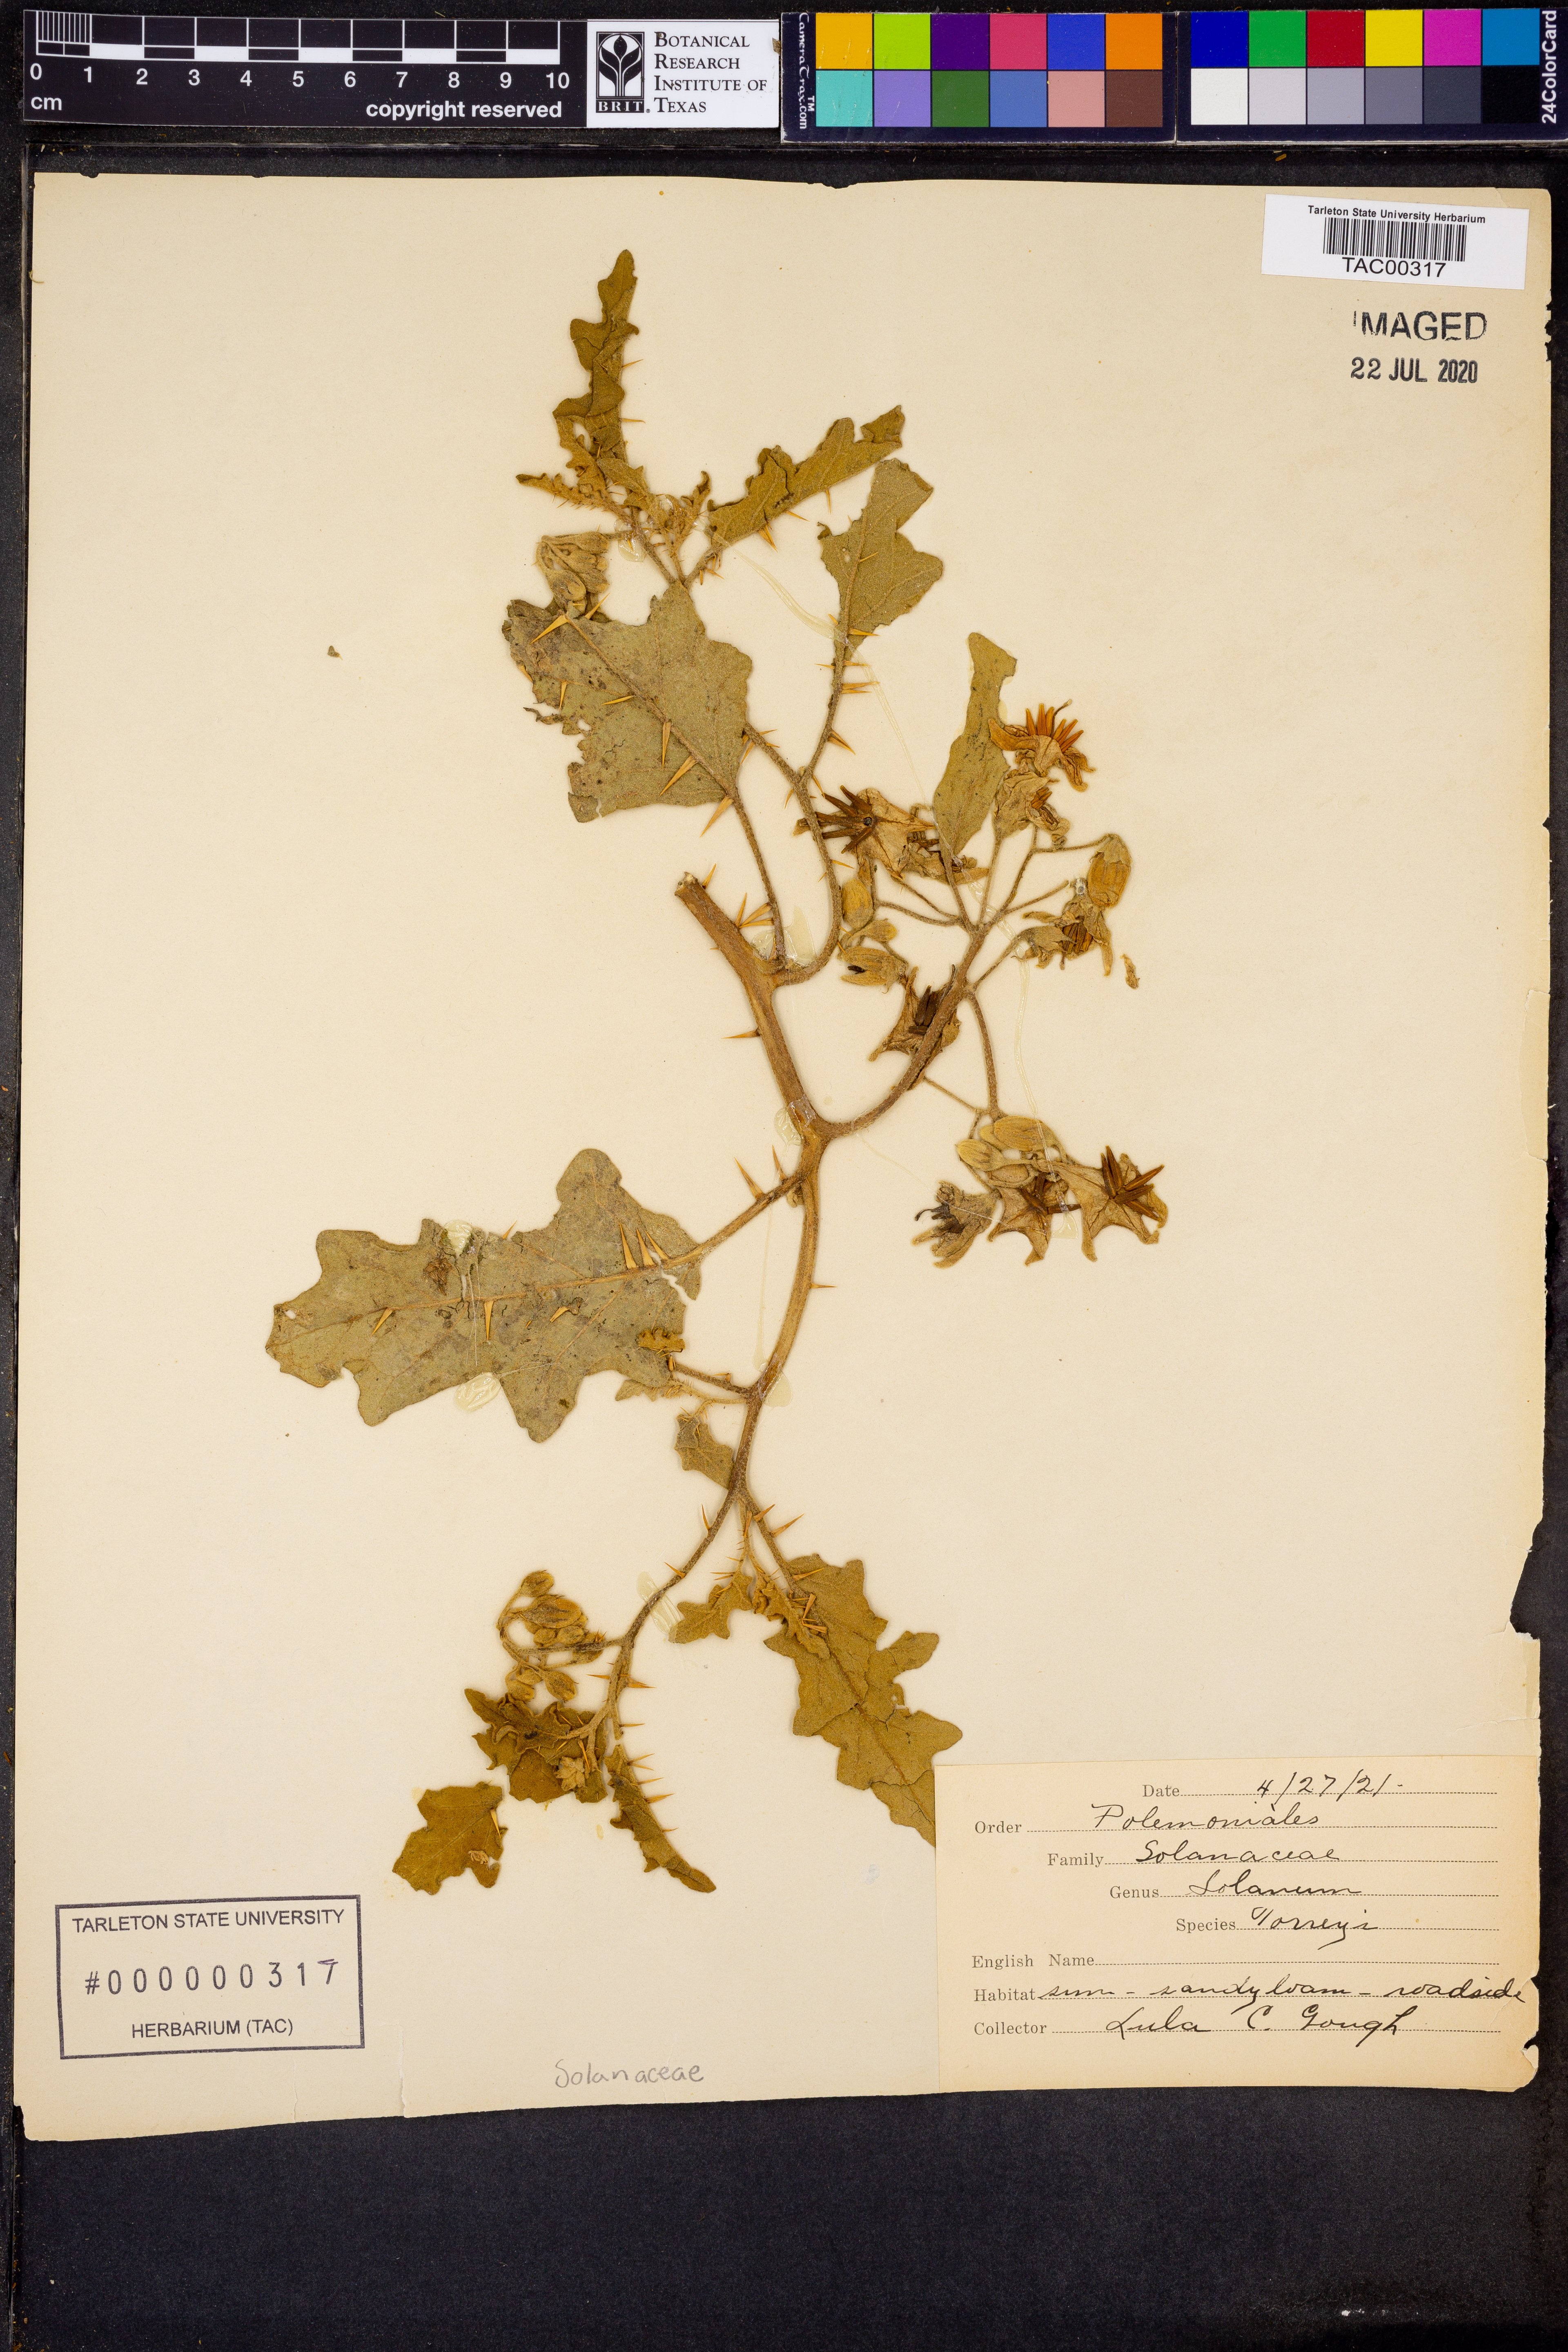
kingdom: Plantae
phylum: Tracheophyta
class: Magnoliopsida
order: Solanales
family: Solanaceae
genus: Solanum
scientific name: Solanum dimidiatum
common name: Carolina horse-nettle
